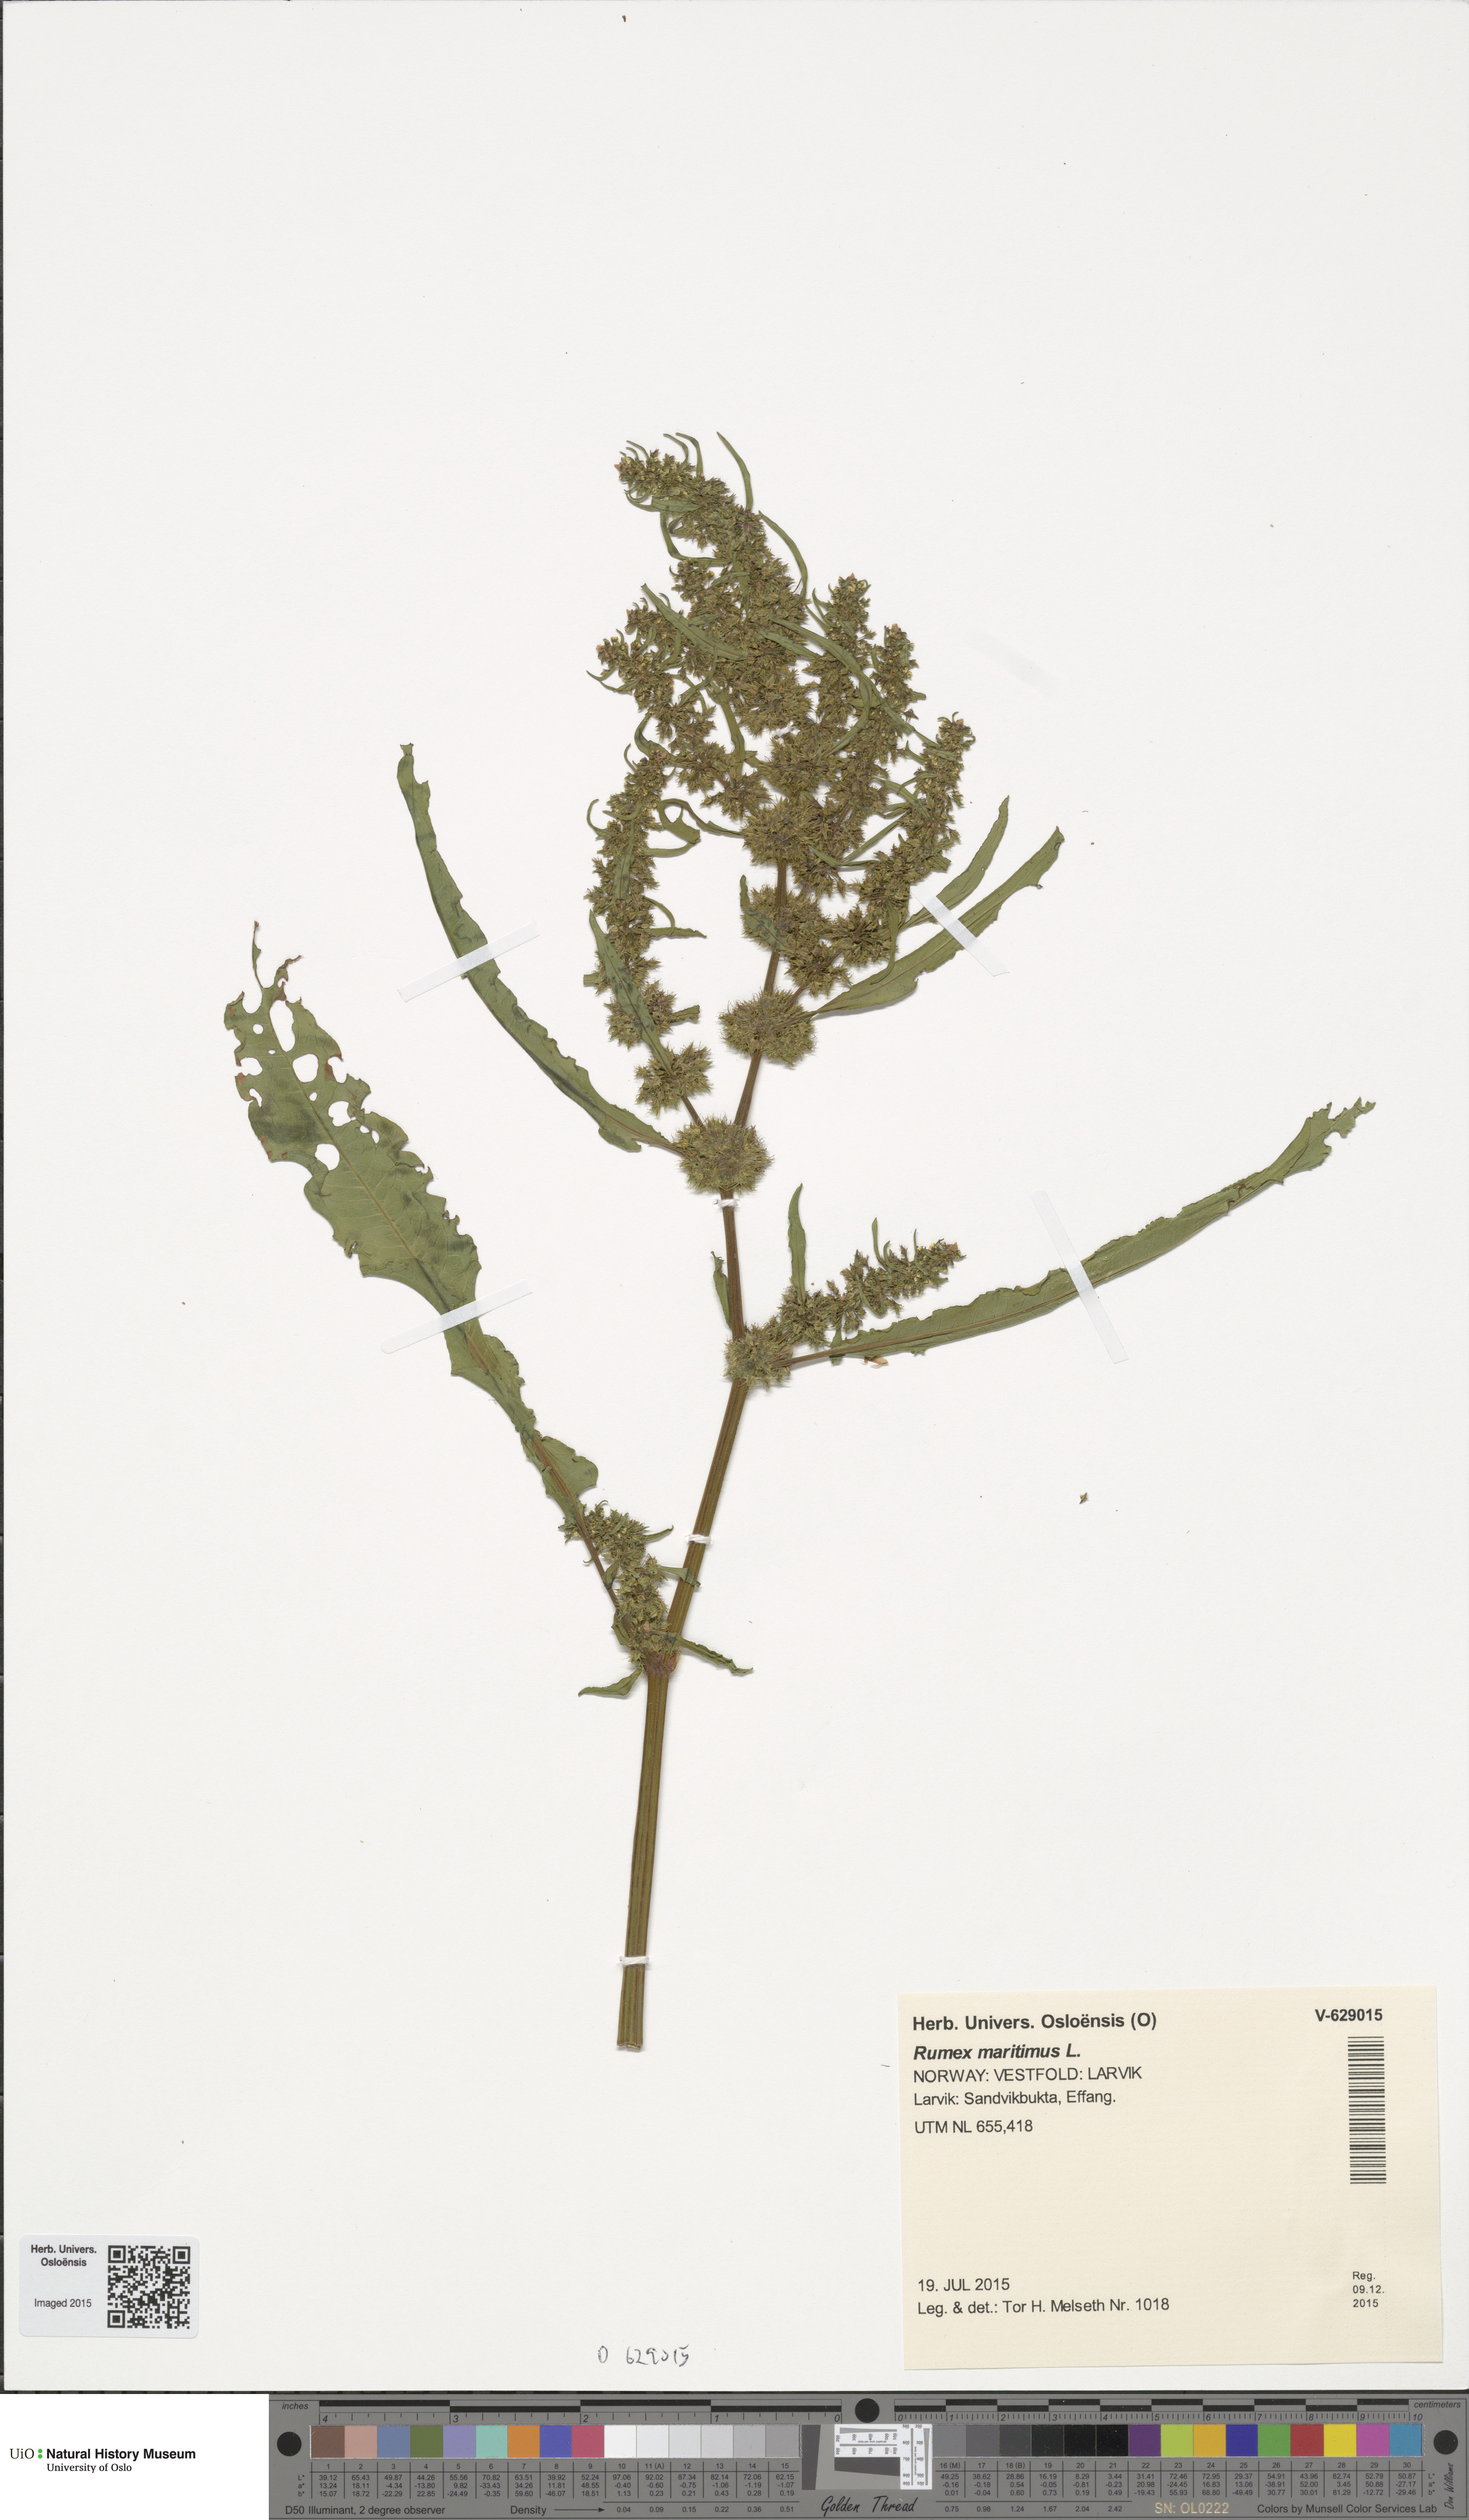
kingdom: Plantae
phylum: Tracheophyta
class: Magnoliopsida
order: Caryophyllales
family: Polygonaceae
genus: Rumex
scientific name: Rumex maritimus
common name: Golden dock
